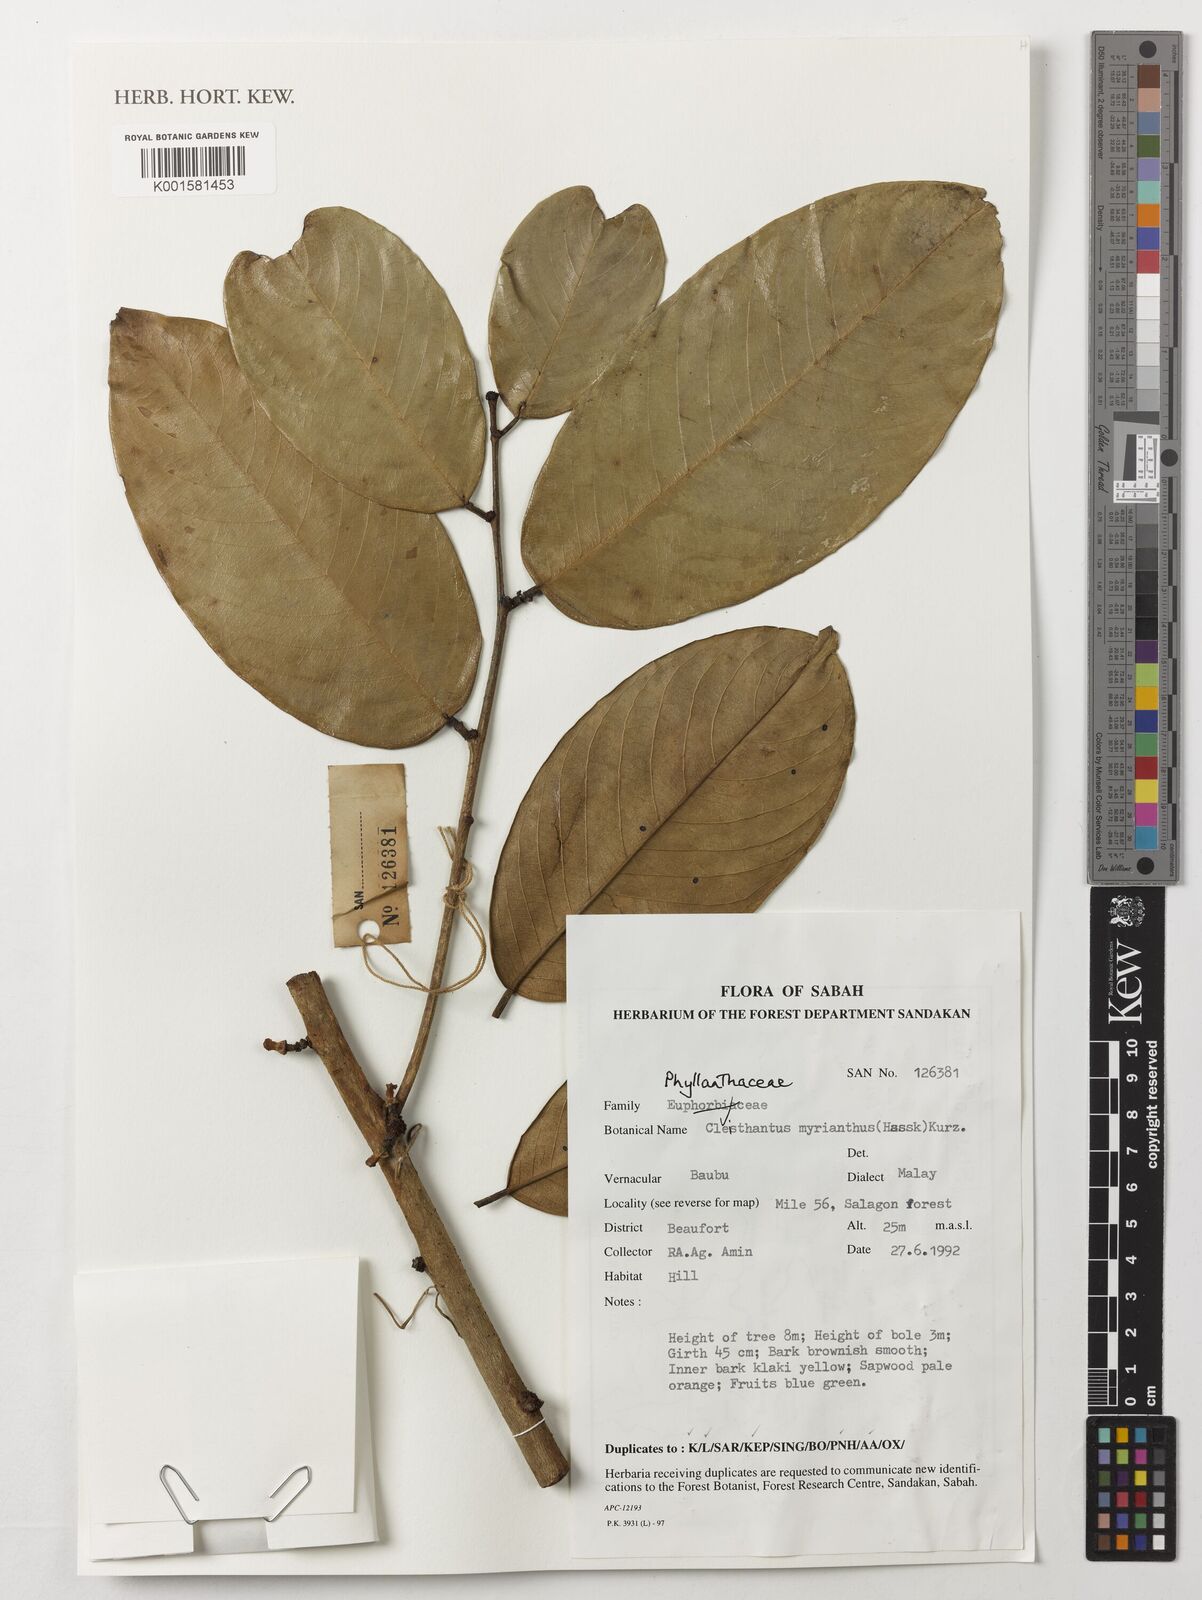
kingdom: Plantae
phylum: Tracheophyta
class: Magnoliopsida
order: Malpighiales
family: Phyllanthaceae
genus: Cleistanthus
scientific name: Cleistanthus oblongifolius
